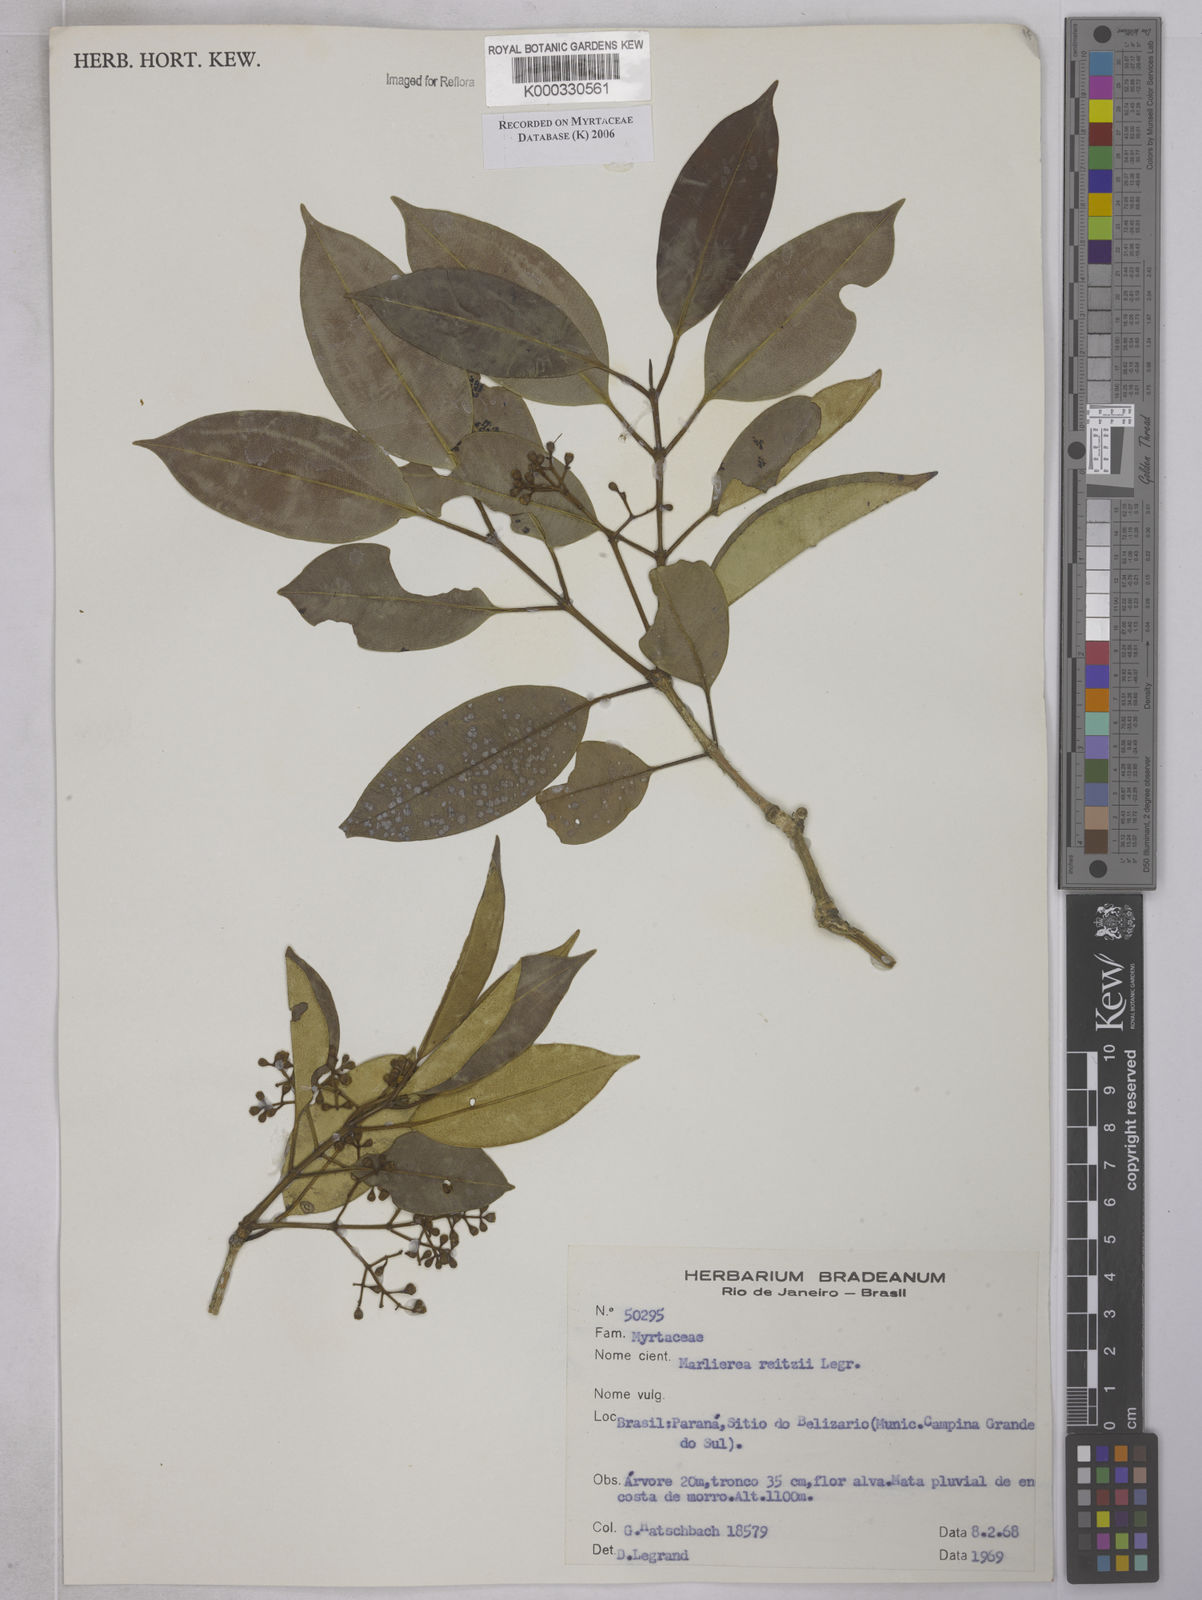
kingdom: Plantae
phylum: Tracheophyta
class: Magnoliopsida
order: Myrtales
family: Myrtaceae
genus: Myrcia
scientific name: Myrcia reitzii
